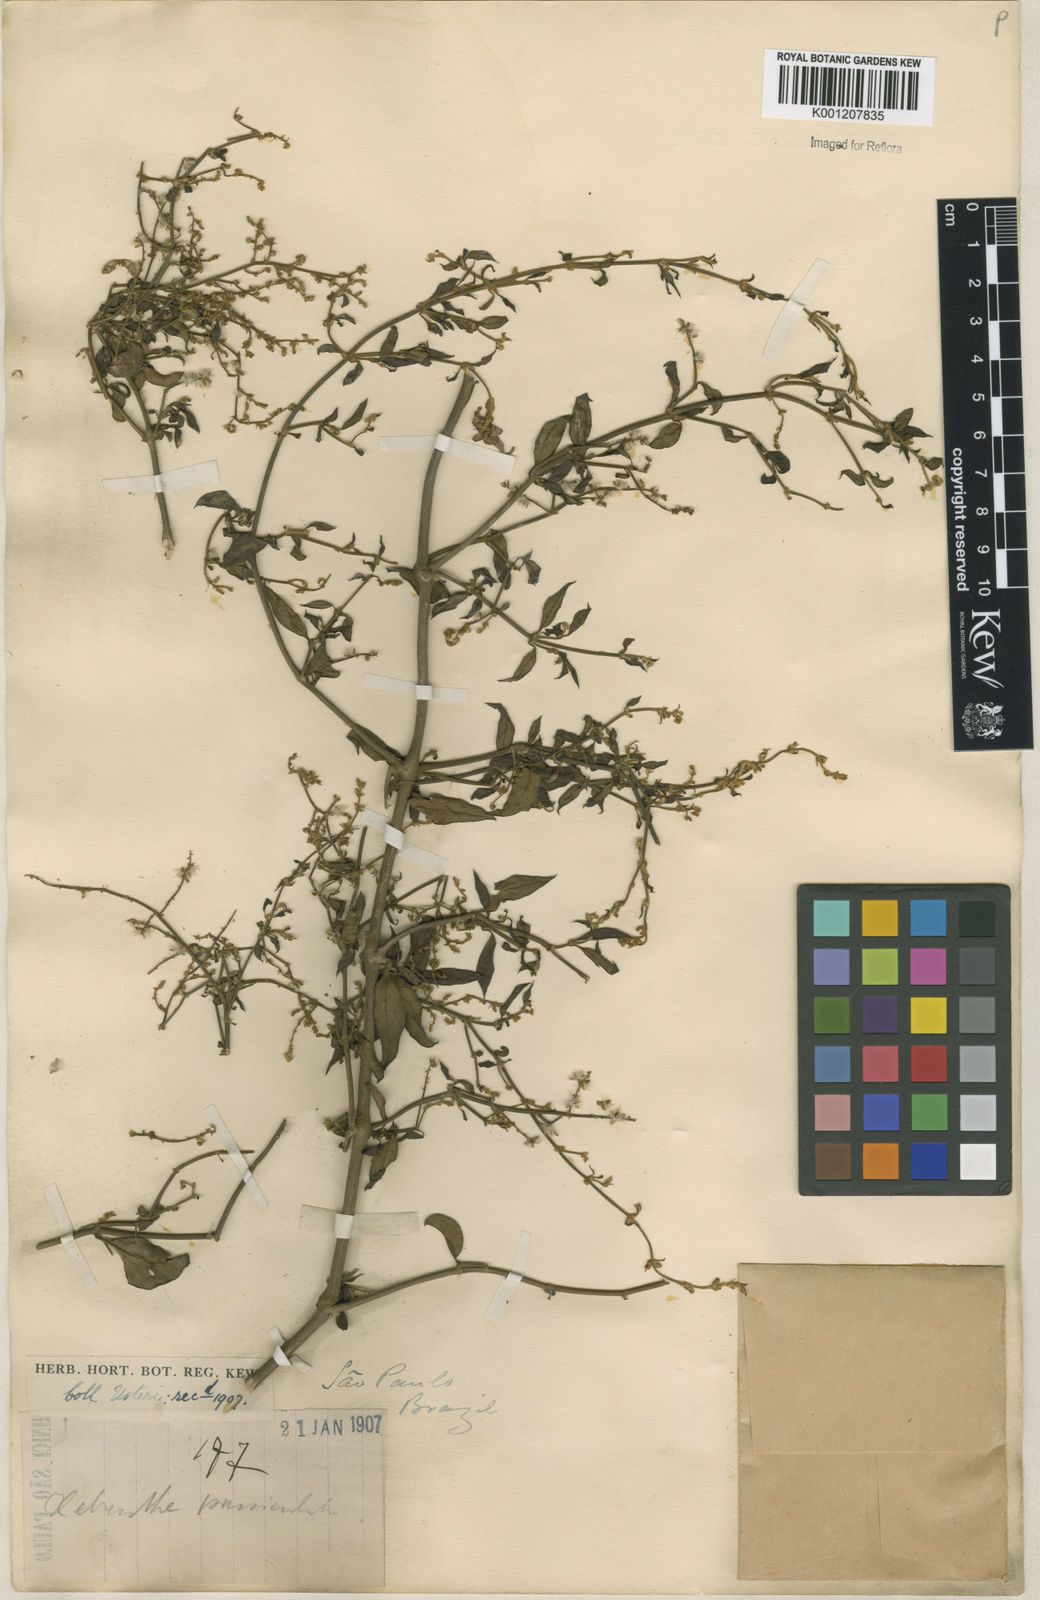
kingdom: Plantae
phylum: Tracheophyta
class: Magnoliopsida
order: Caryophyllales
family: Amaranthaceae
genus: Hebanthe
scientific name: Hebanthe erianthos
